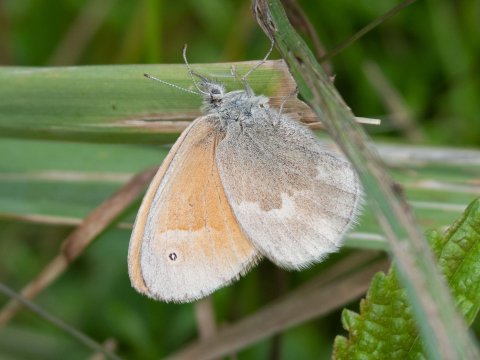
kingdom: Animalia
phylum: Arthropoda
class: Insecta
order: Lepidoptera
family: Nymphalidae
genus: Coenonympha
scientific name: Coenonympha california
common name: California Ringlet
